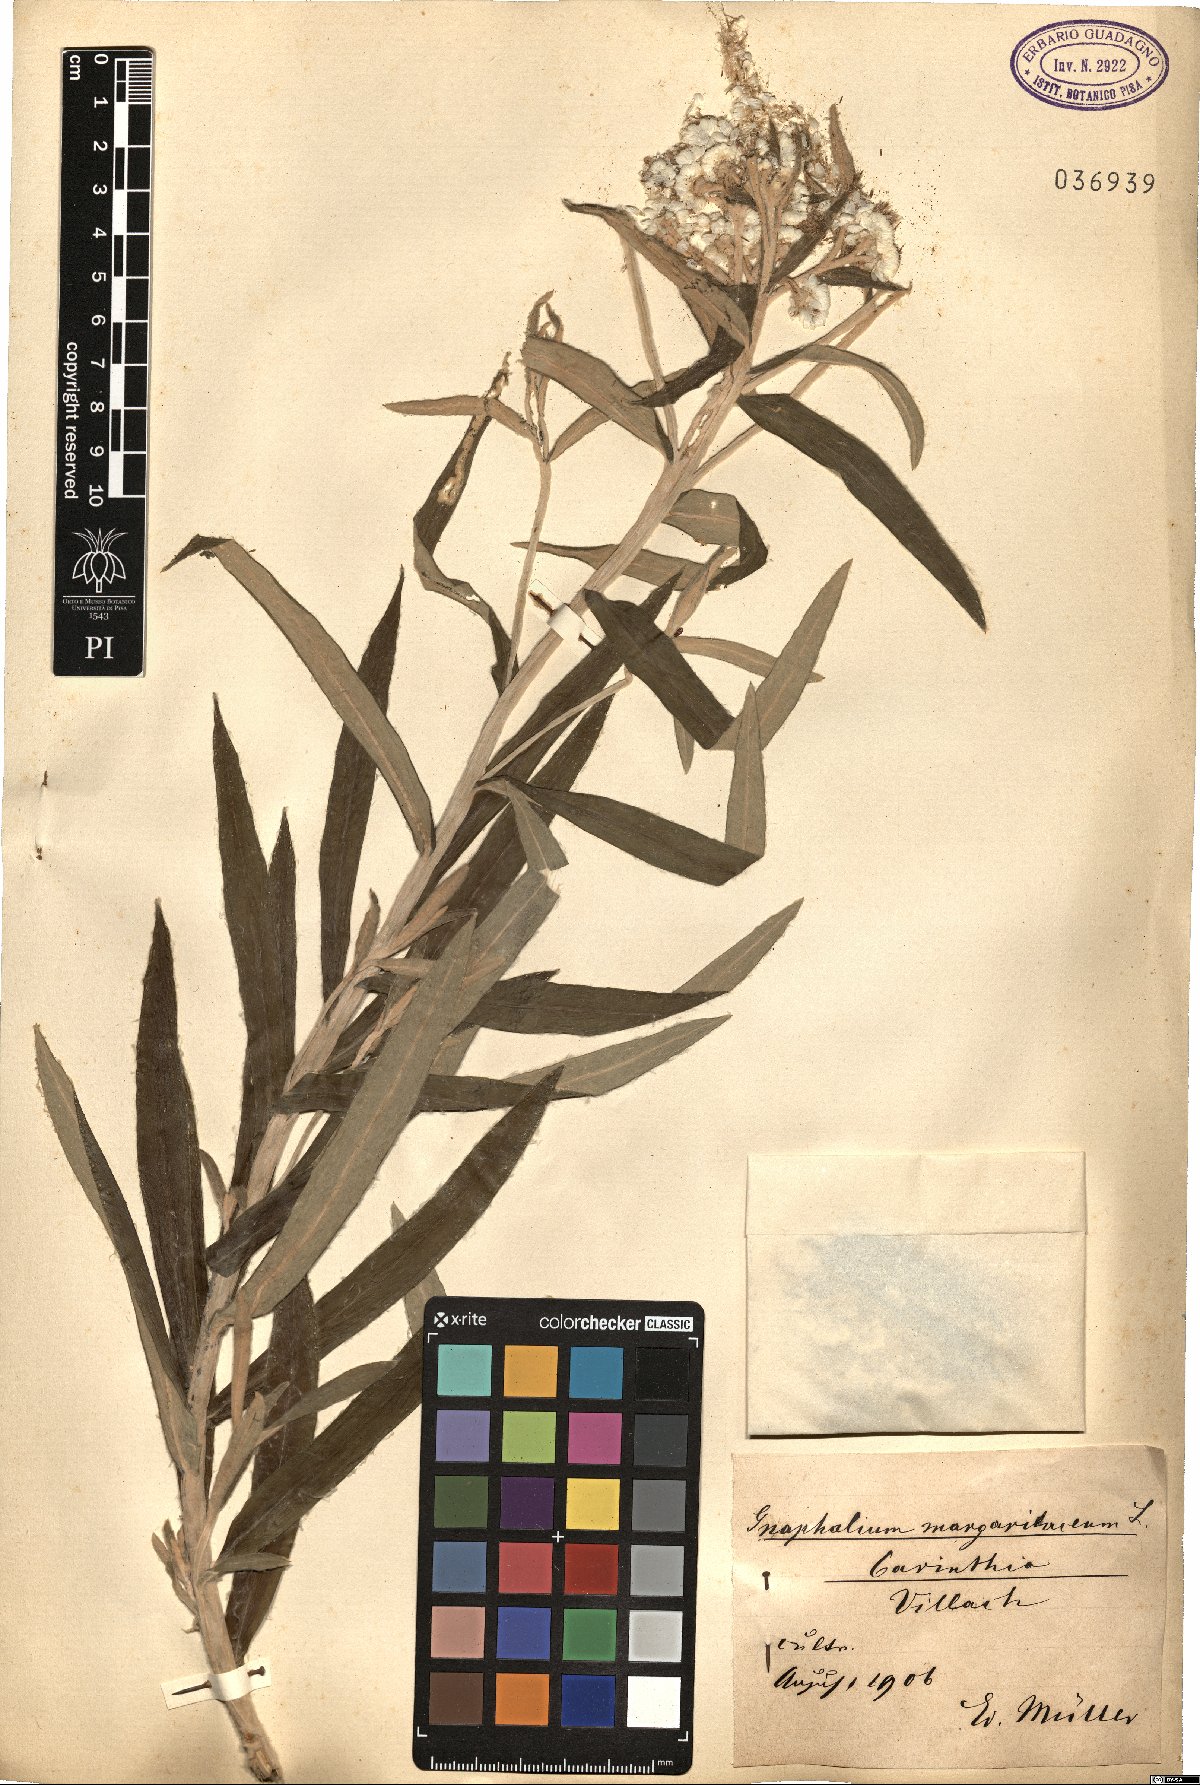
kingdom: Plantae
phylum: Tracheophyta
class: Magnoliopsida
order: Asterales
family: Asteraceae
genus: Anaphalis
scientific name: Anaphalis margaritacea
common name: Pearly everlasting
